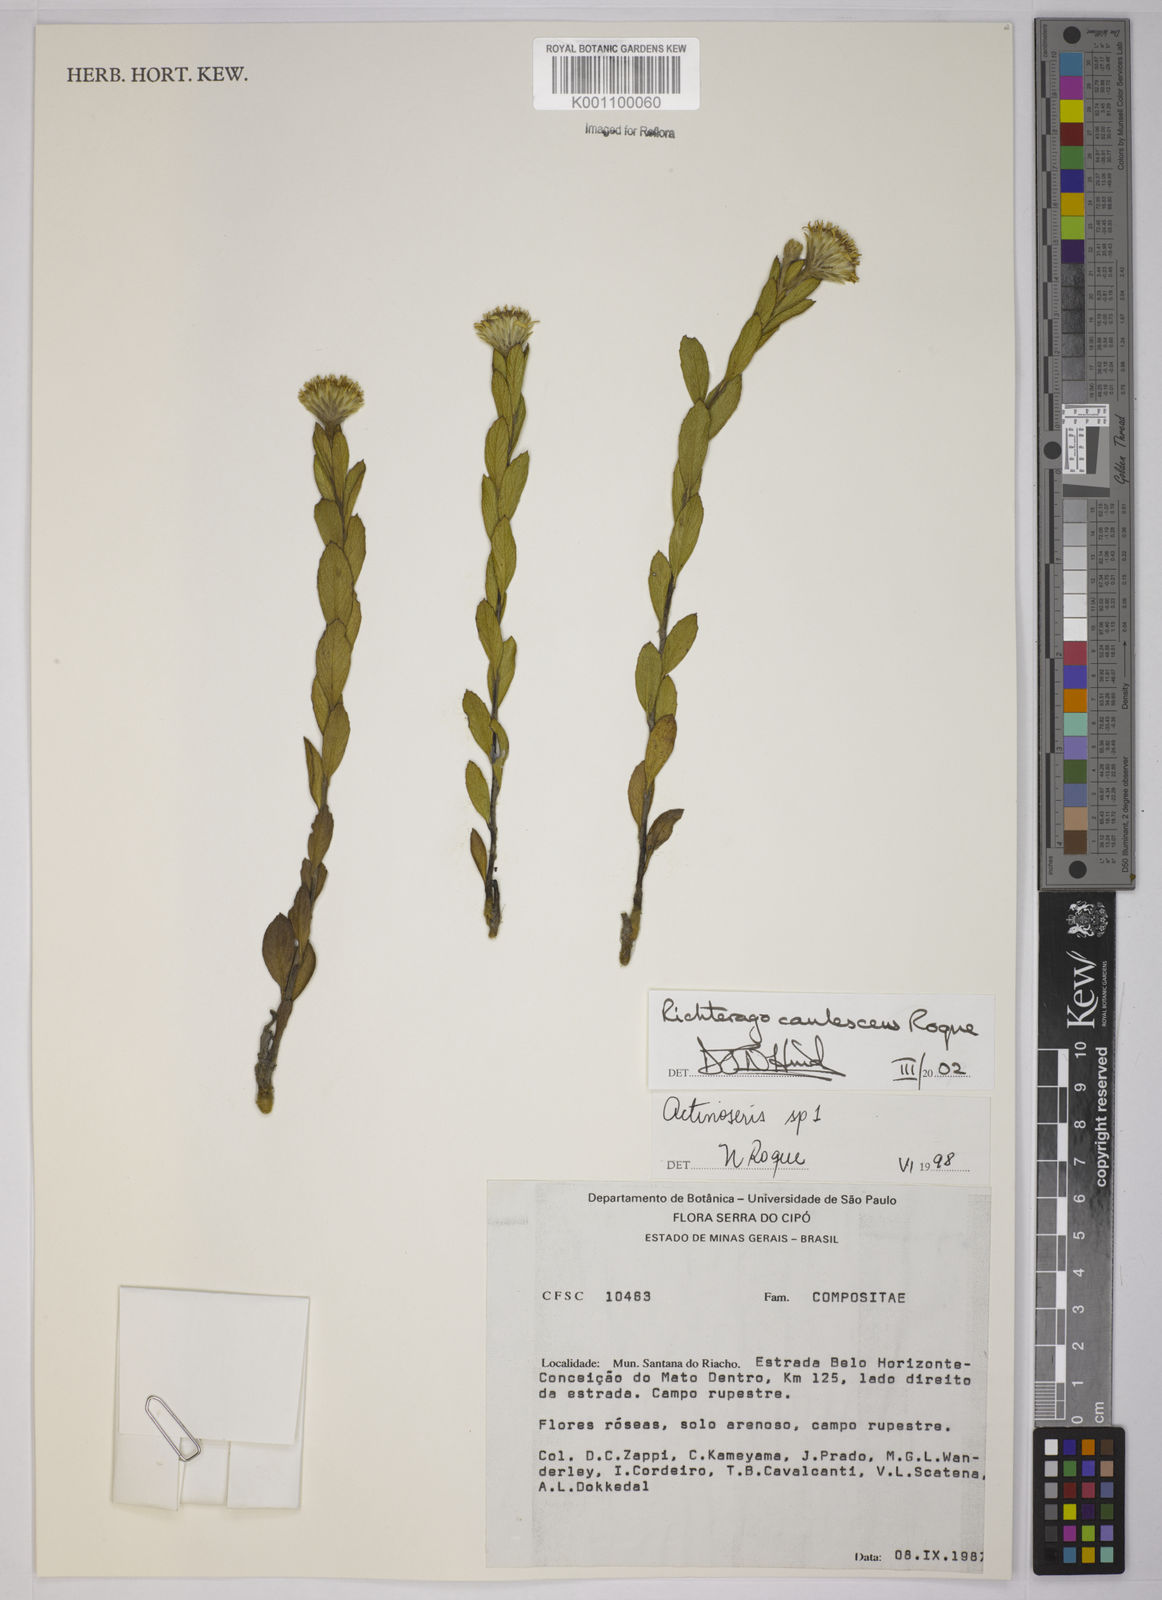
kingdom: Plantae
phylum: Tracheophyta
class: Magnoliopsida
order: Asterales
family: Asteraceae
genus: Richterago
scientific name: Richterago caulescens
